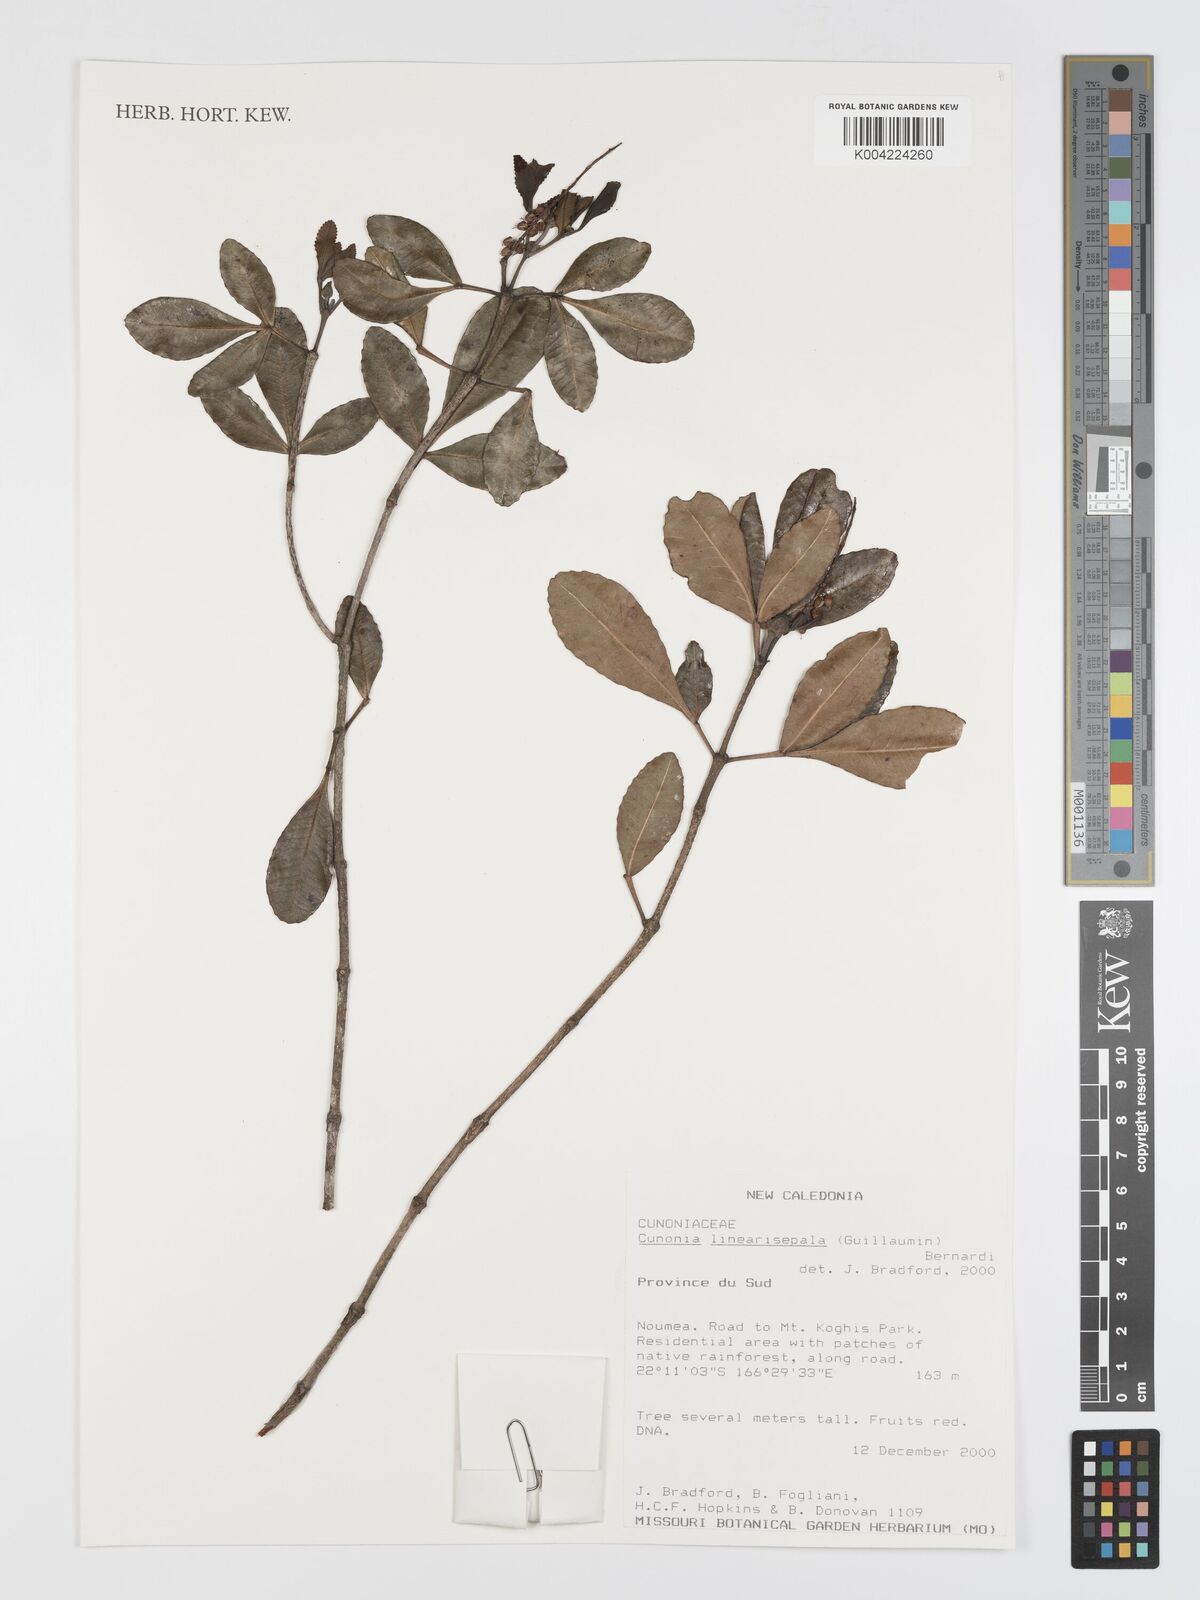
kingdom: Plantae
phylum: Tracheophyta
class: Magnoliopsida
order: Oxalidales
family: Cunoniaceae
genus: Cunonia
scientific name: Cunonia linearisepala
